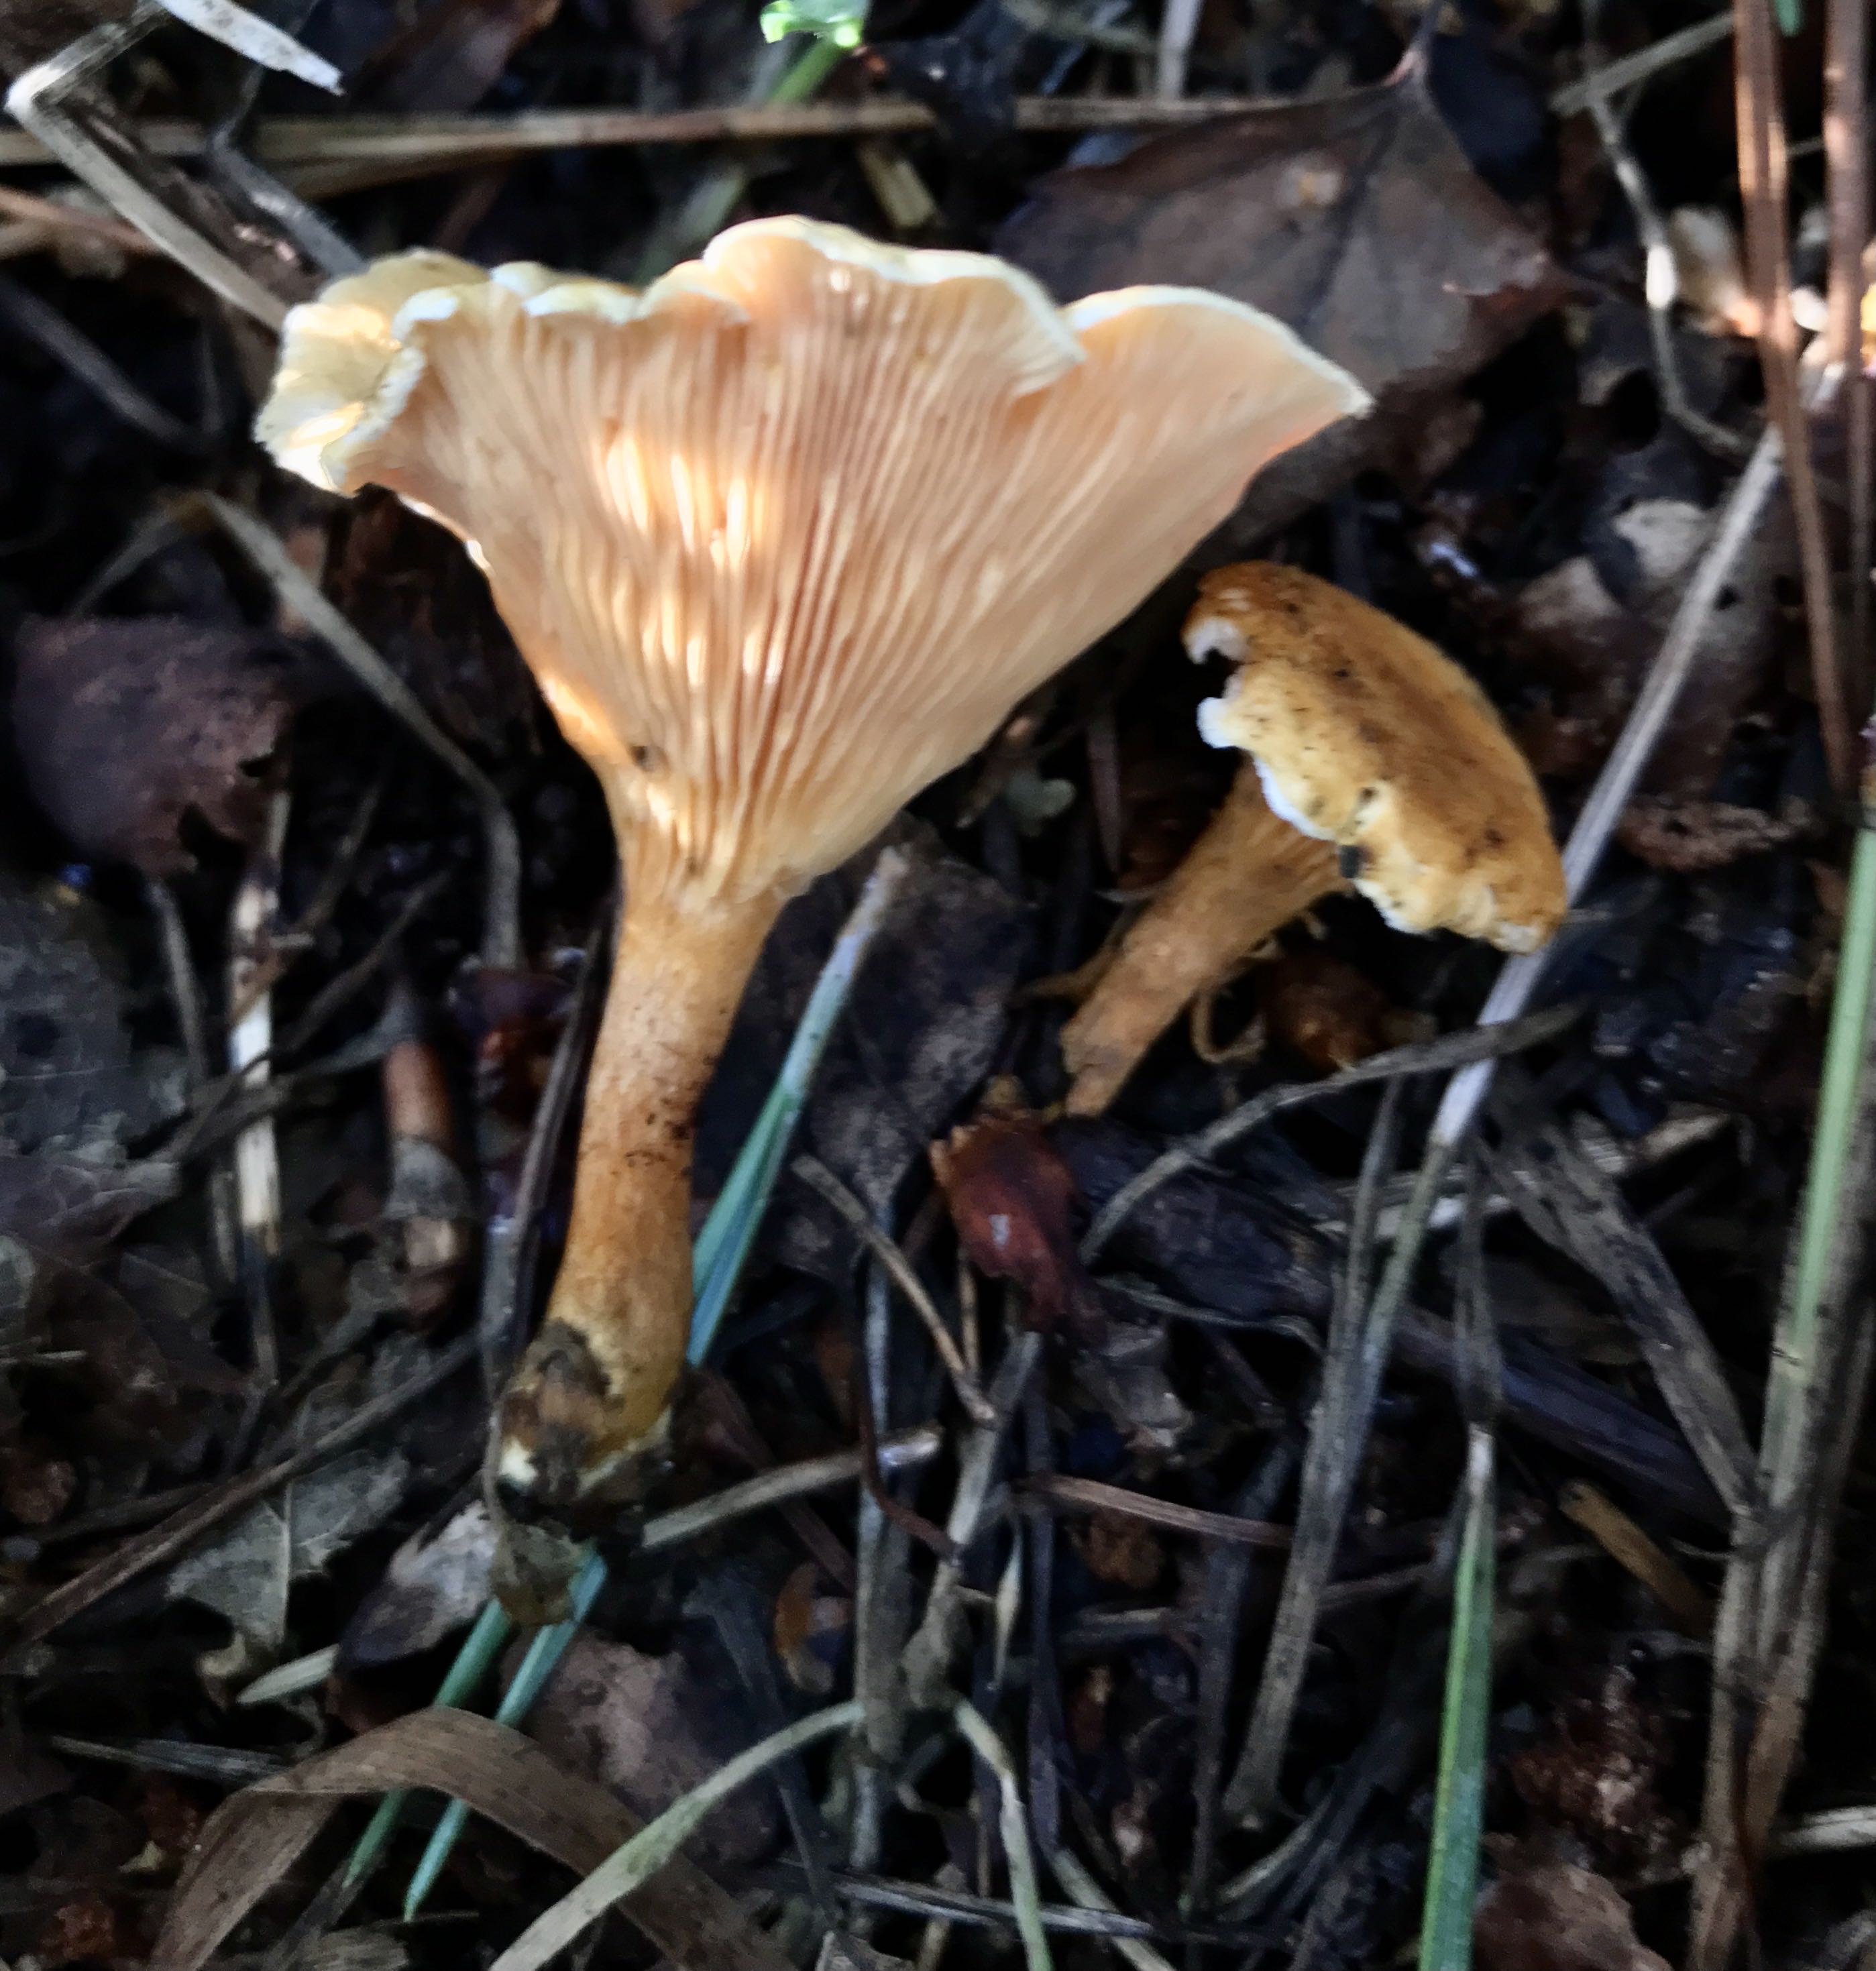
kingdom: Fungi
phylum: Basidiomycota
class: Agaricomycetes
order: Boletales
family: Hygrophoropsidaceae
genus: Hygrophoropsis
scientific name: Hygrophoropsis aurantiaca
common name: almindelig orangekantarel
